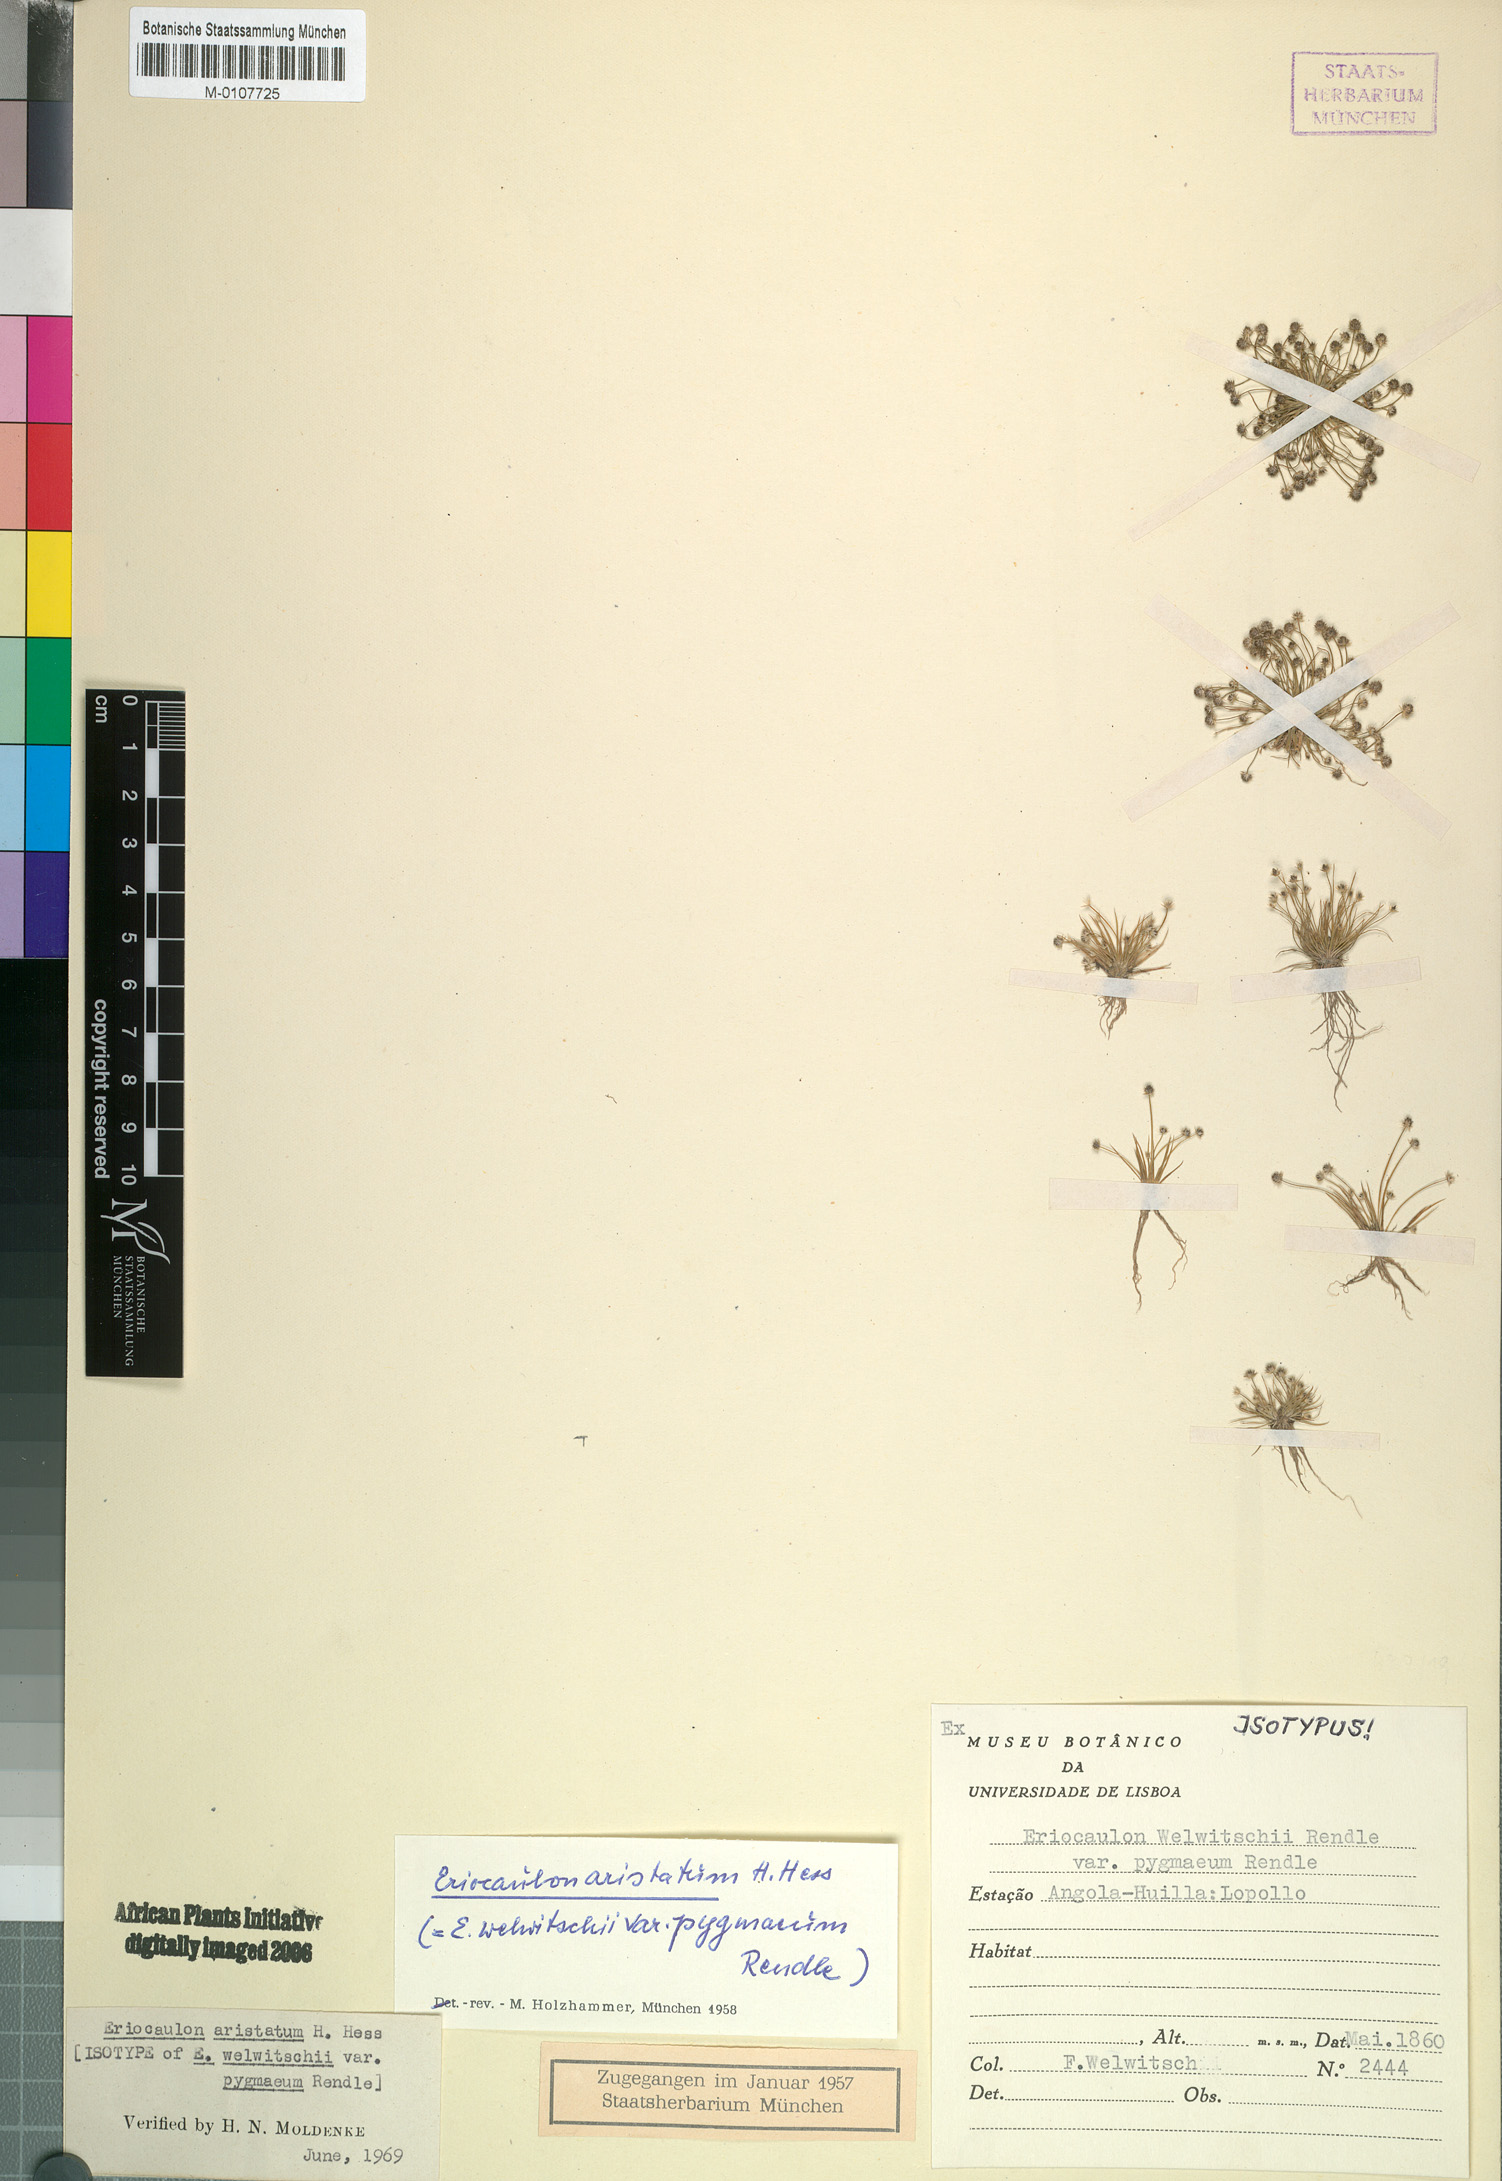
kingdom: Plantae
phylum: Tracheophyta
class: Liliopsida
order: Poales
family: Eriocaulaceae
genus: Eriocaulon
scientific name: Eriocaulon welwitschii
